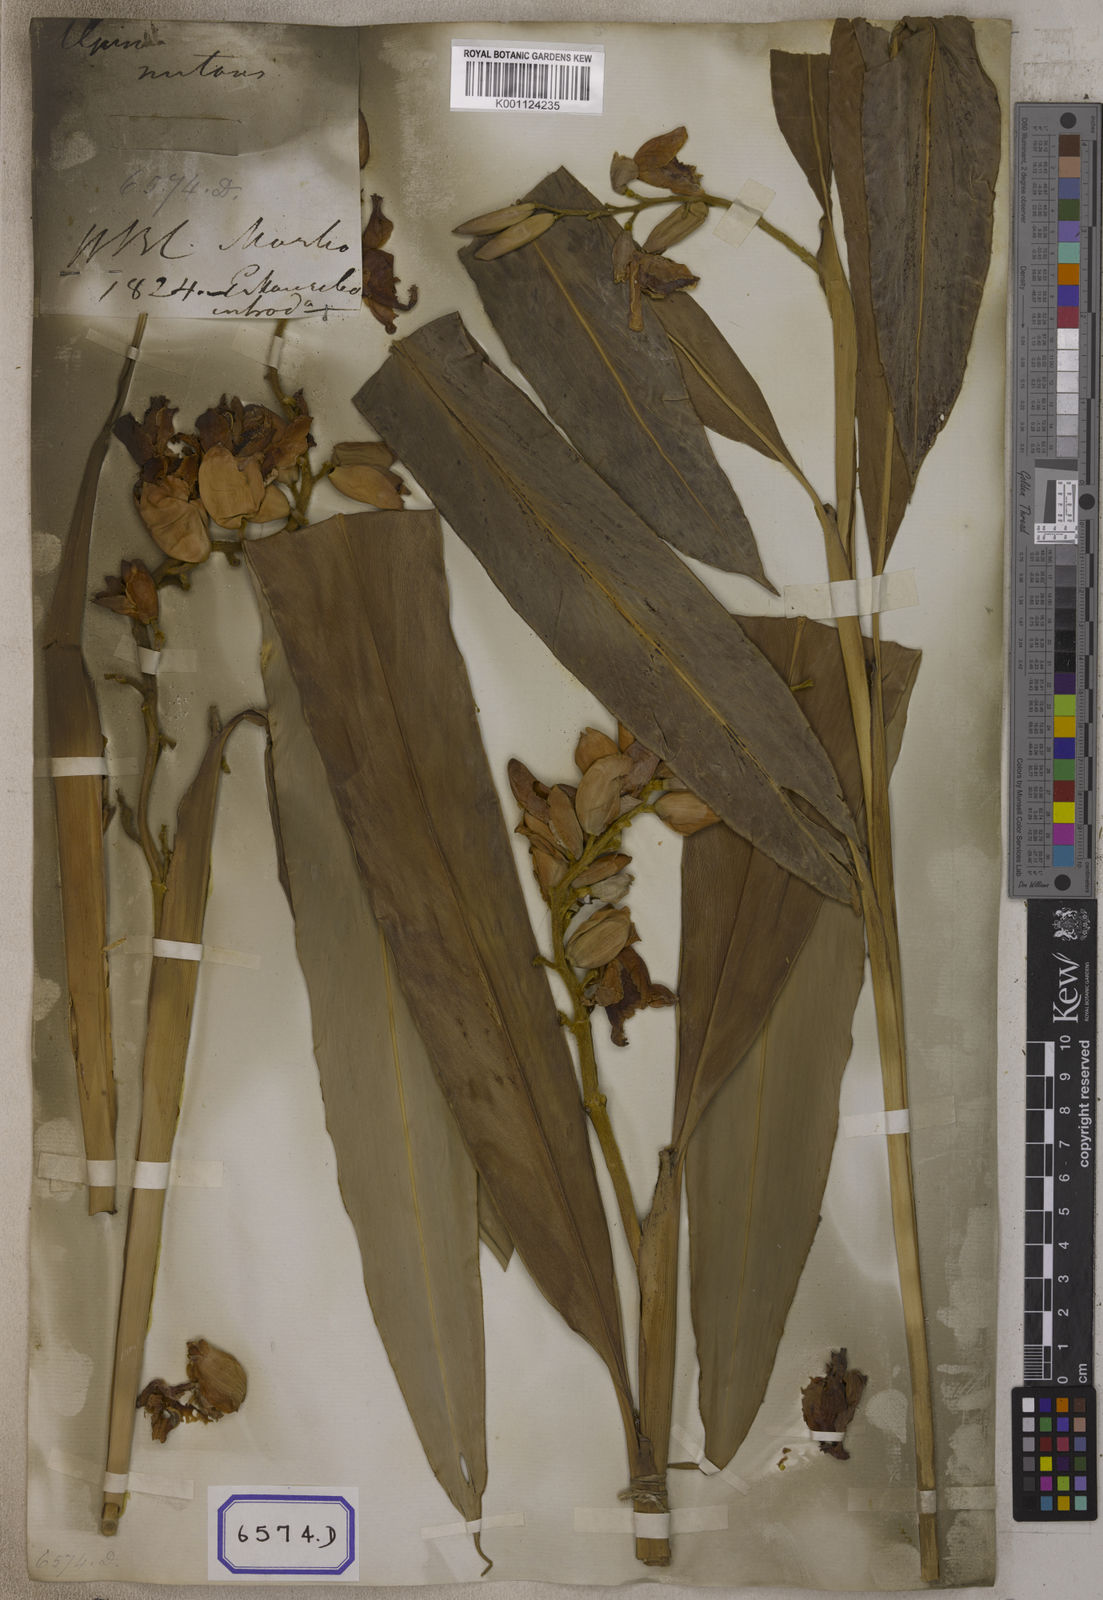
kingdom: Plantae
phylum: Tracheophyta
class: Liliopsida
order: Zingiberales
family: Zingiberaceae
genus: Alpinia
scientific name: Alpinia nutans
